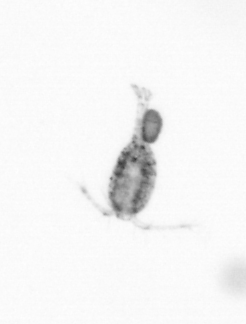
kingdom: Animalia
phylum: Arthropoda
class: Copepoda
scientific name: Copepoda
